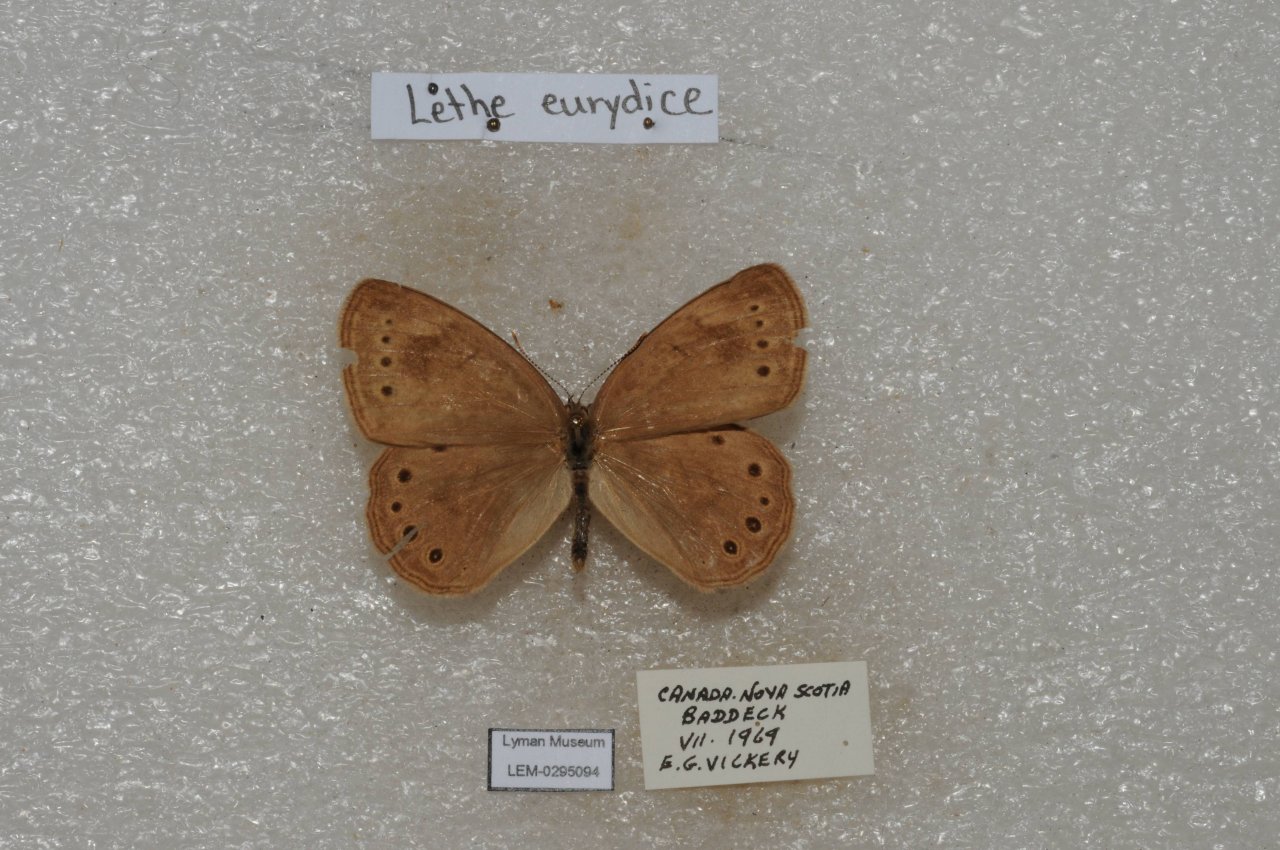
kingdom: Animalia
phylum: Arthropoda
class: Insecta
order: Lepidoptera
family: Nymphalidae
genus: Lethe
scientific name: Lethe eurydice
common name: Eyed Brown
